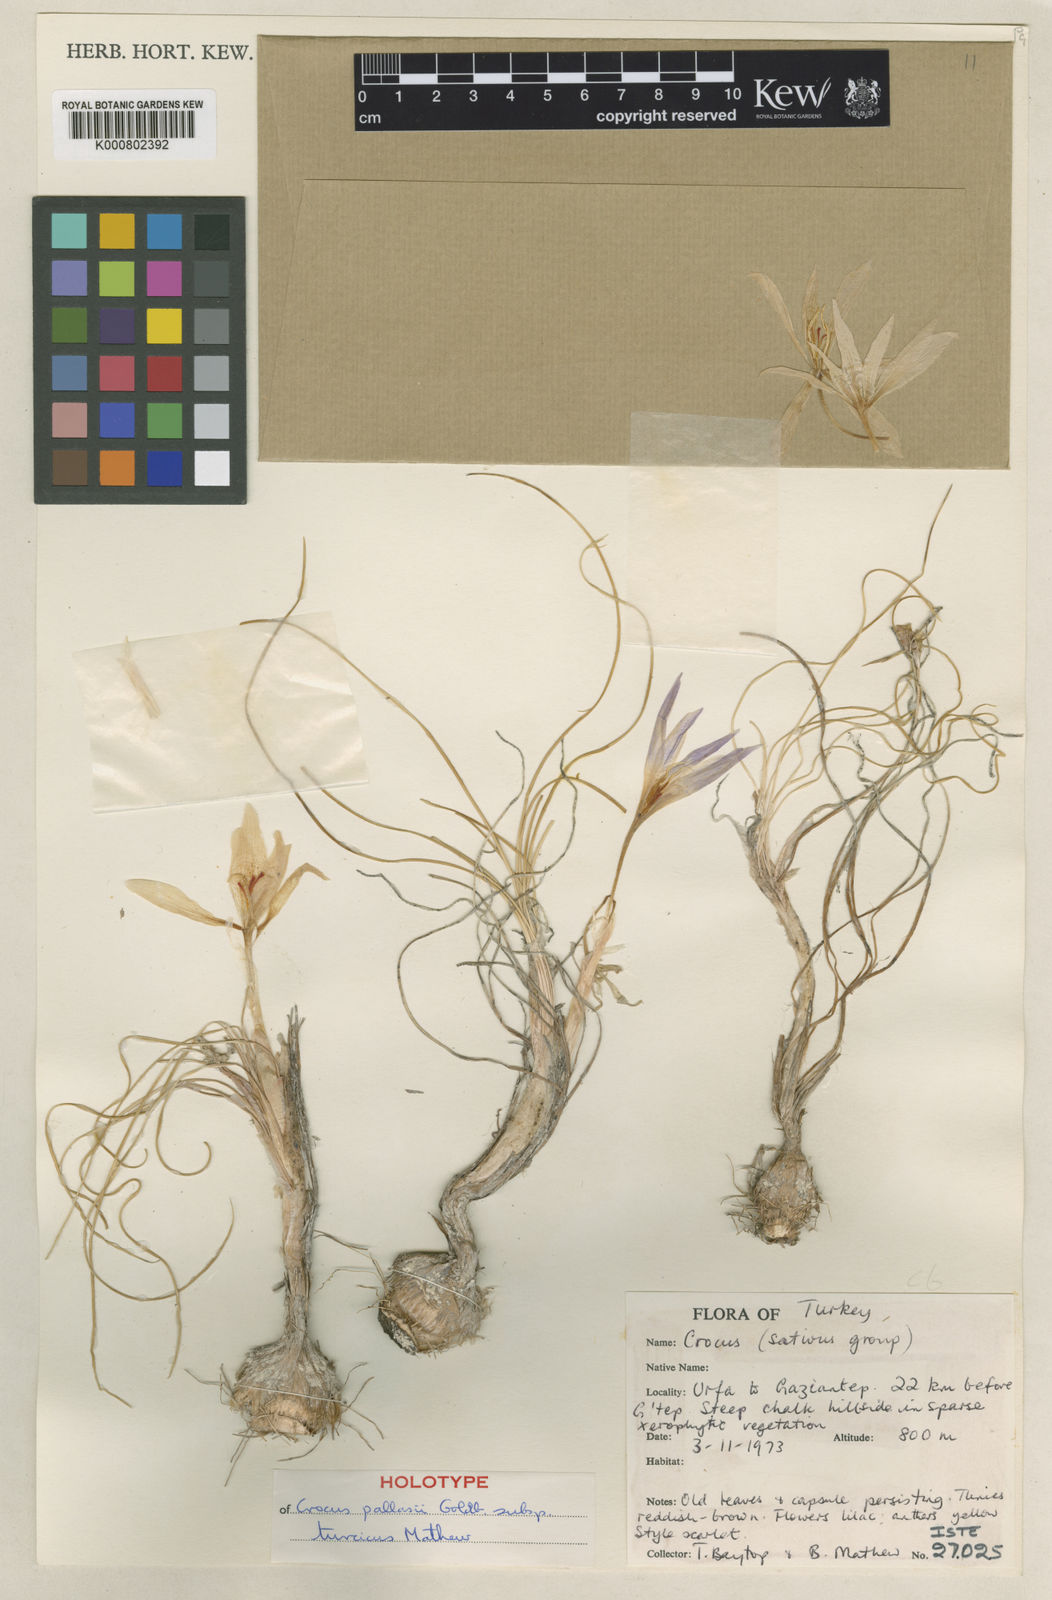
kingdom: Plantae
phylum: Tracheophyta
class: Liliopsida
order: Asparagales
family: Iridaceae
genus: Crocus
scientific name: Crocus turcicus
